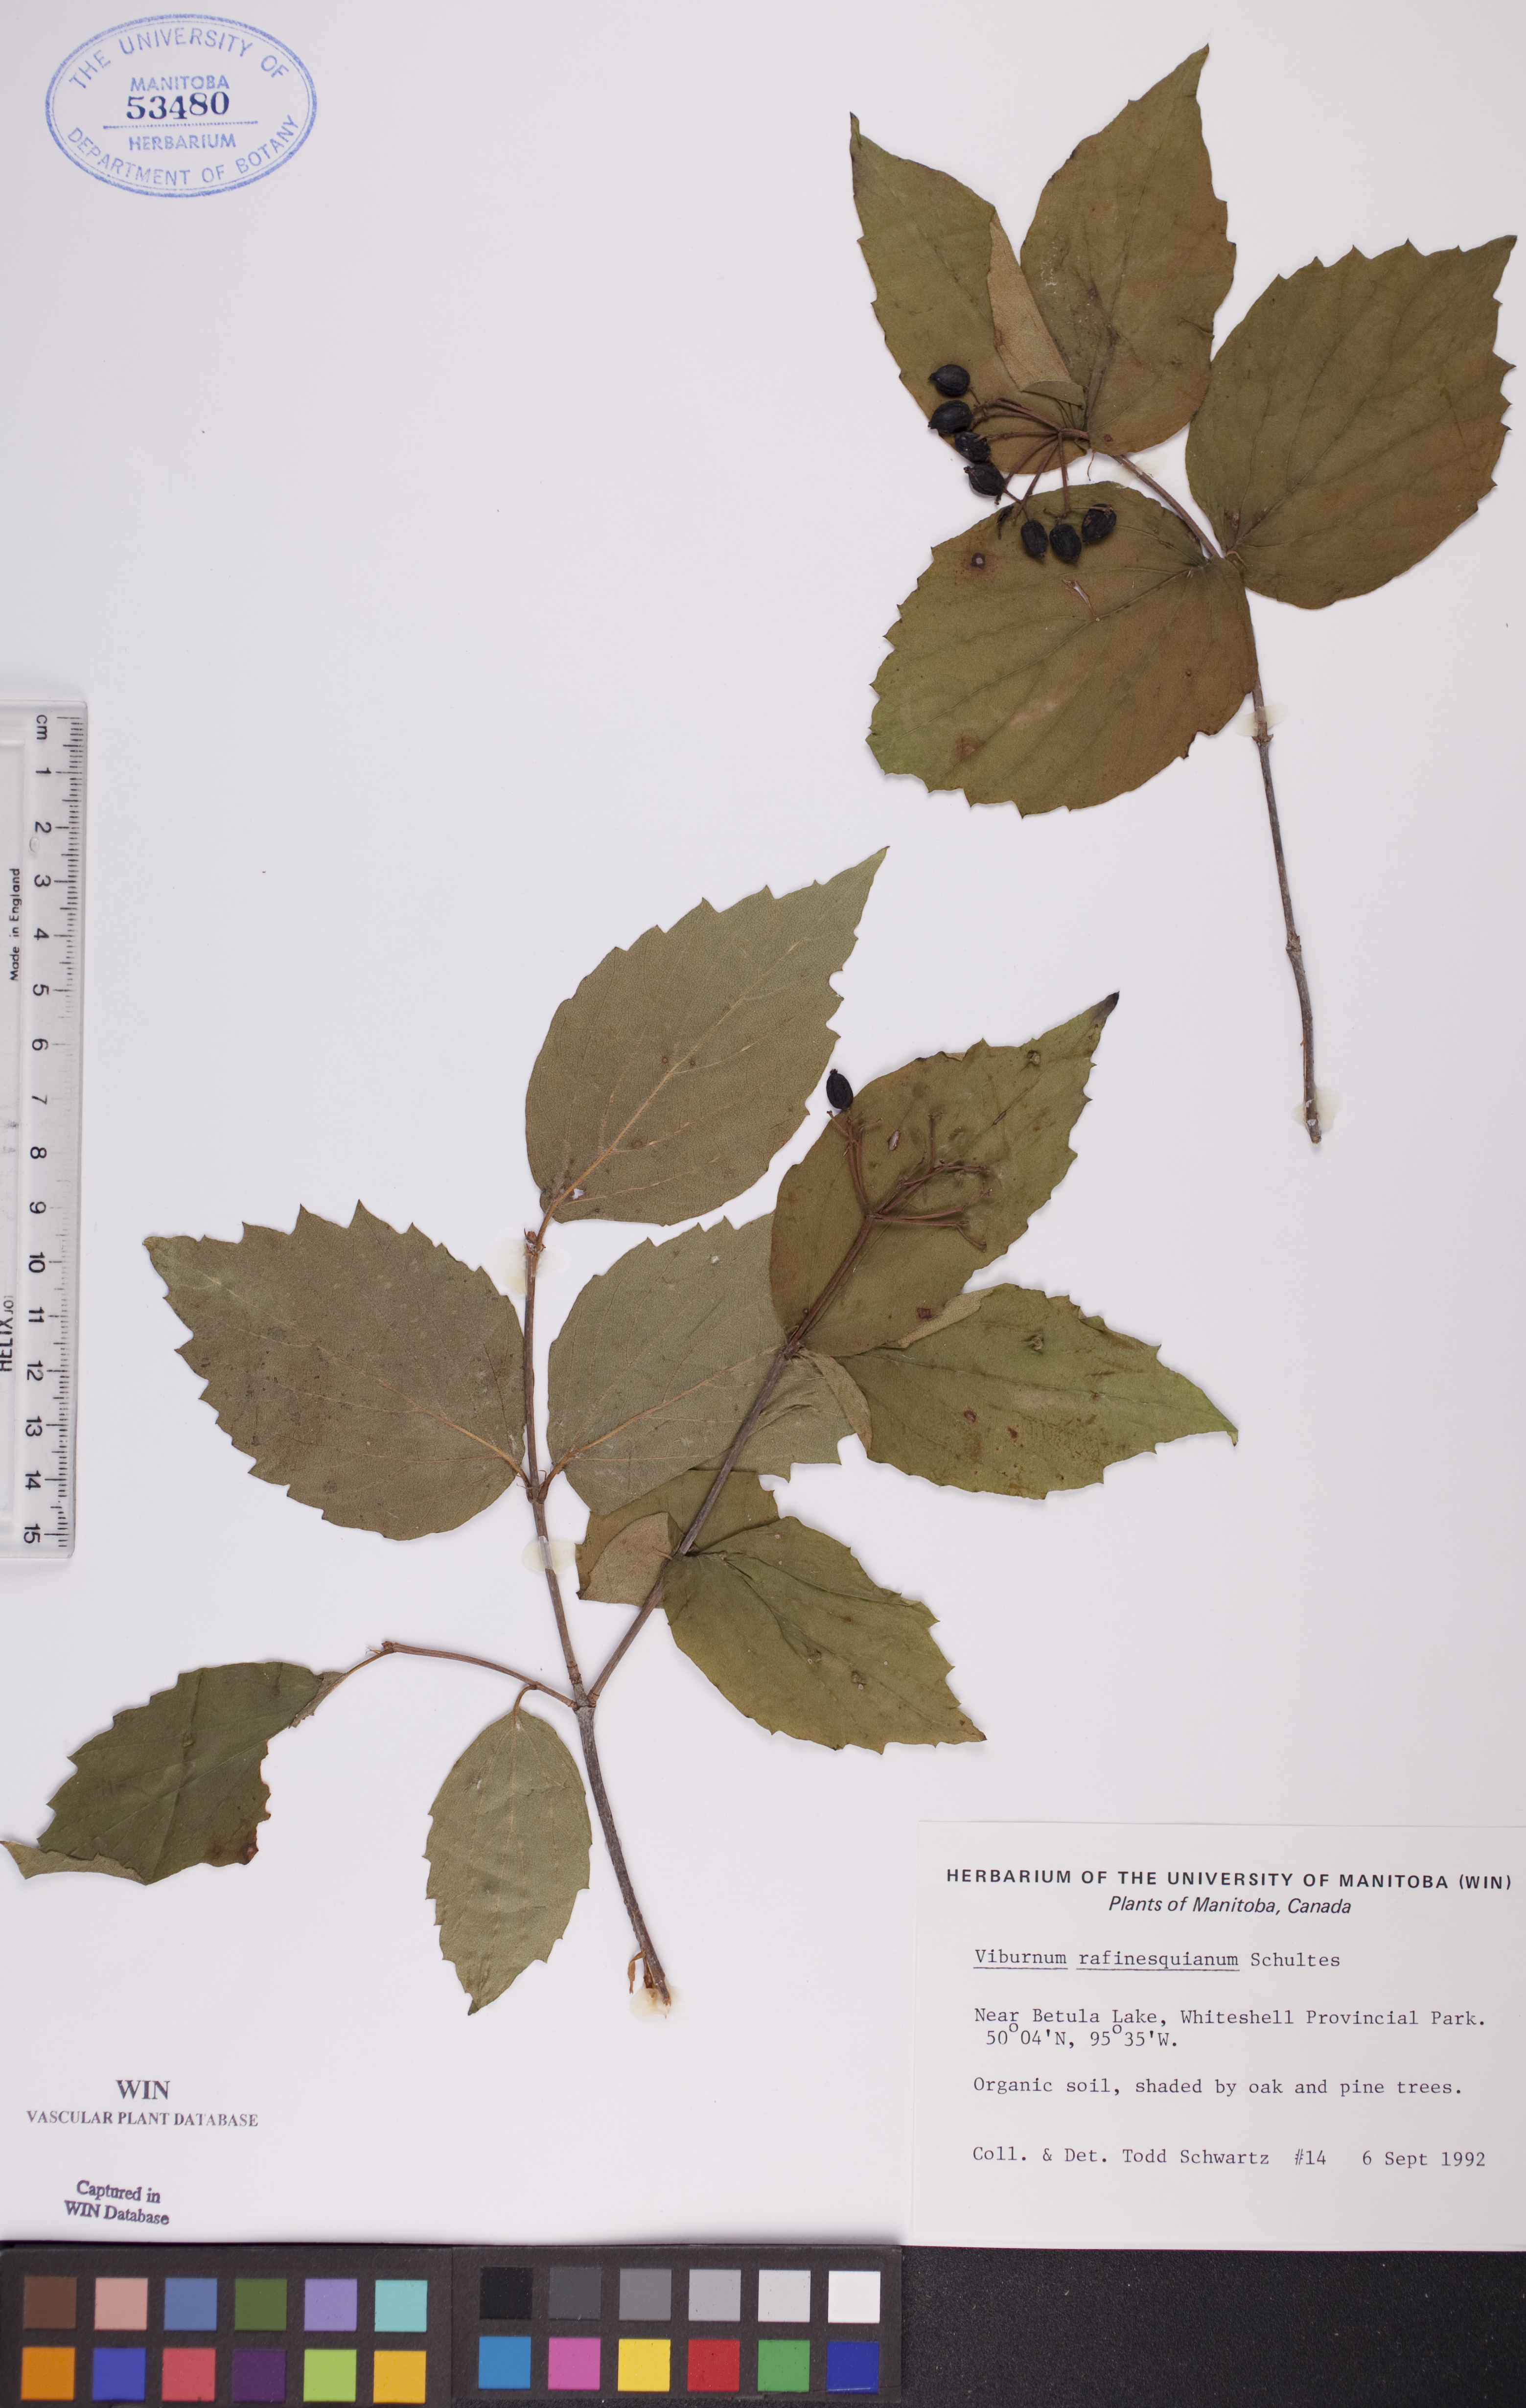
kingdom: Plantae
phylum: Tracheophyta
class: Magnoliopsida
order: Dipsacales
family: Viburnaceae
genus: Viburnum
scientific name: Viburnum rafinesquianum
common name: Downy arrow-wood
